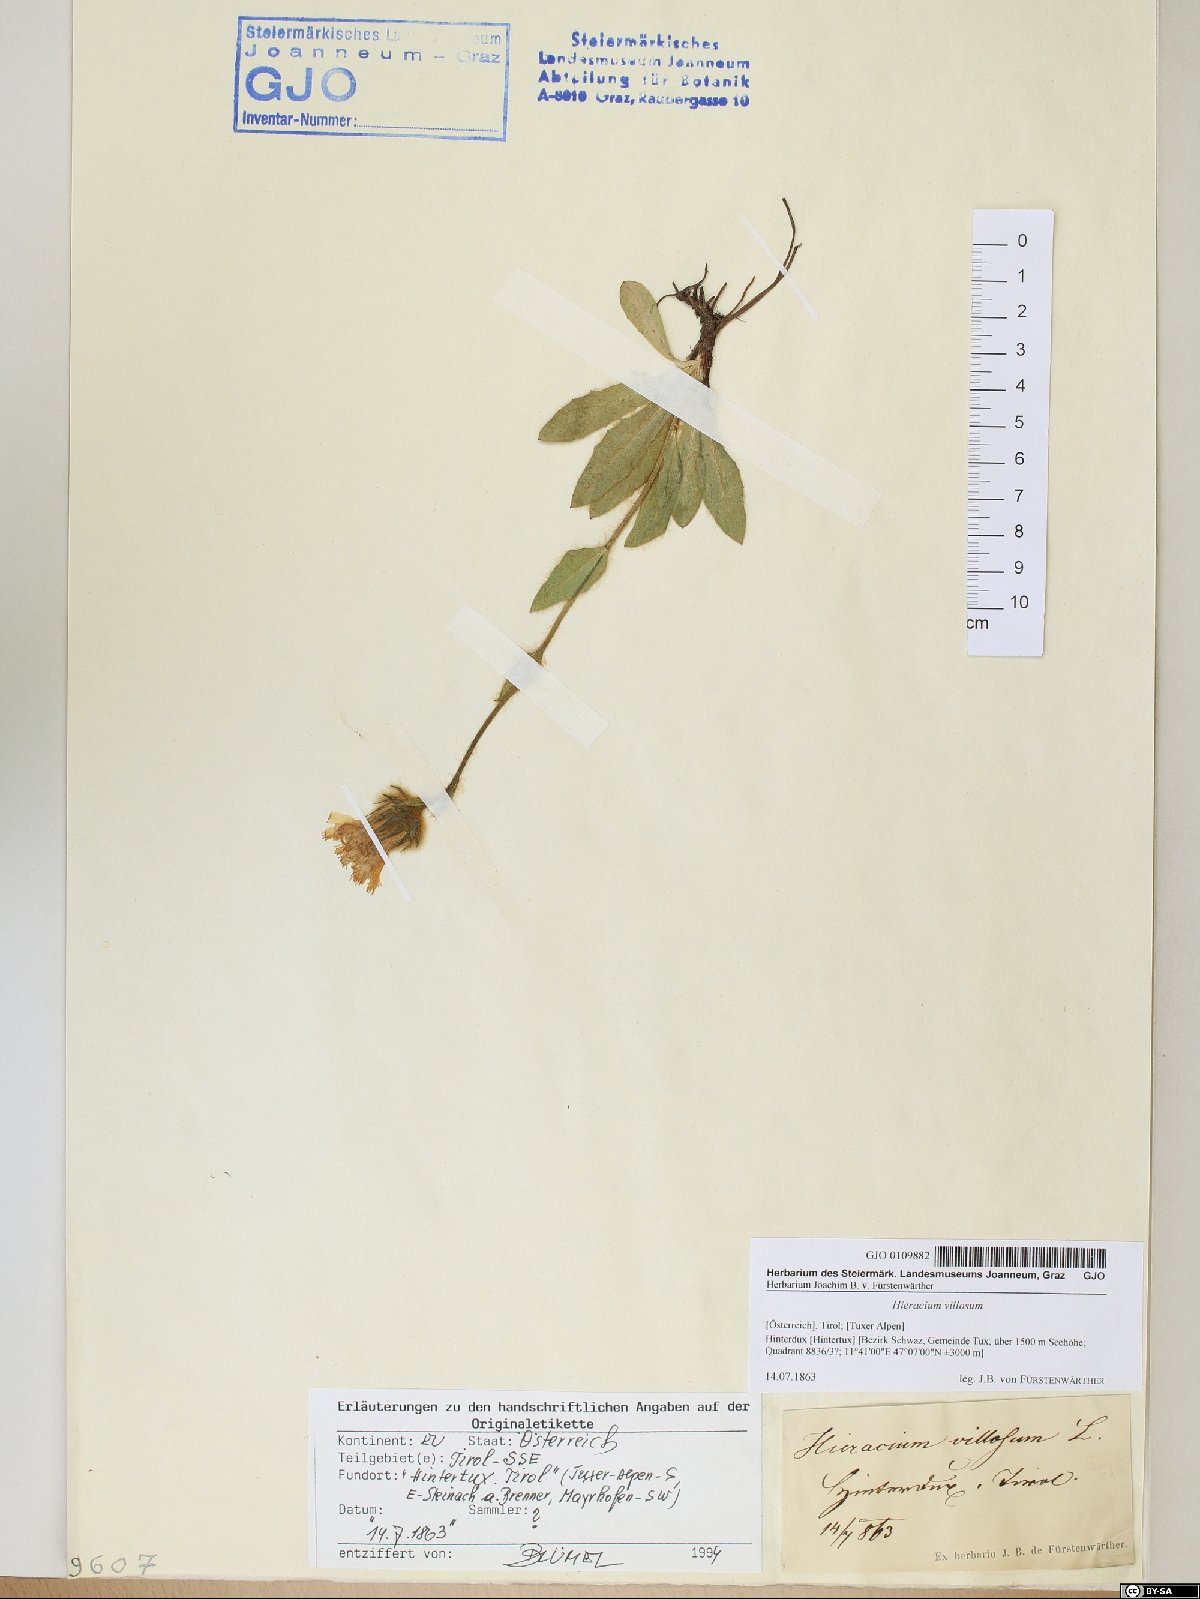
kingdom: Plantae
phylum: Tracheophyta
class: Magnoliopsida
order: Asterales
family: Asteraceae
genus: Hieracium
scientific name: Hieracium villosum
